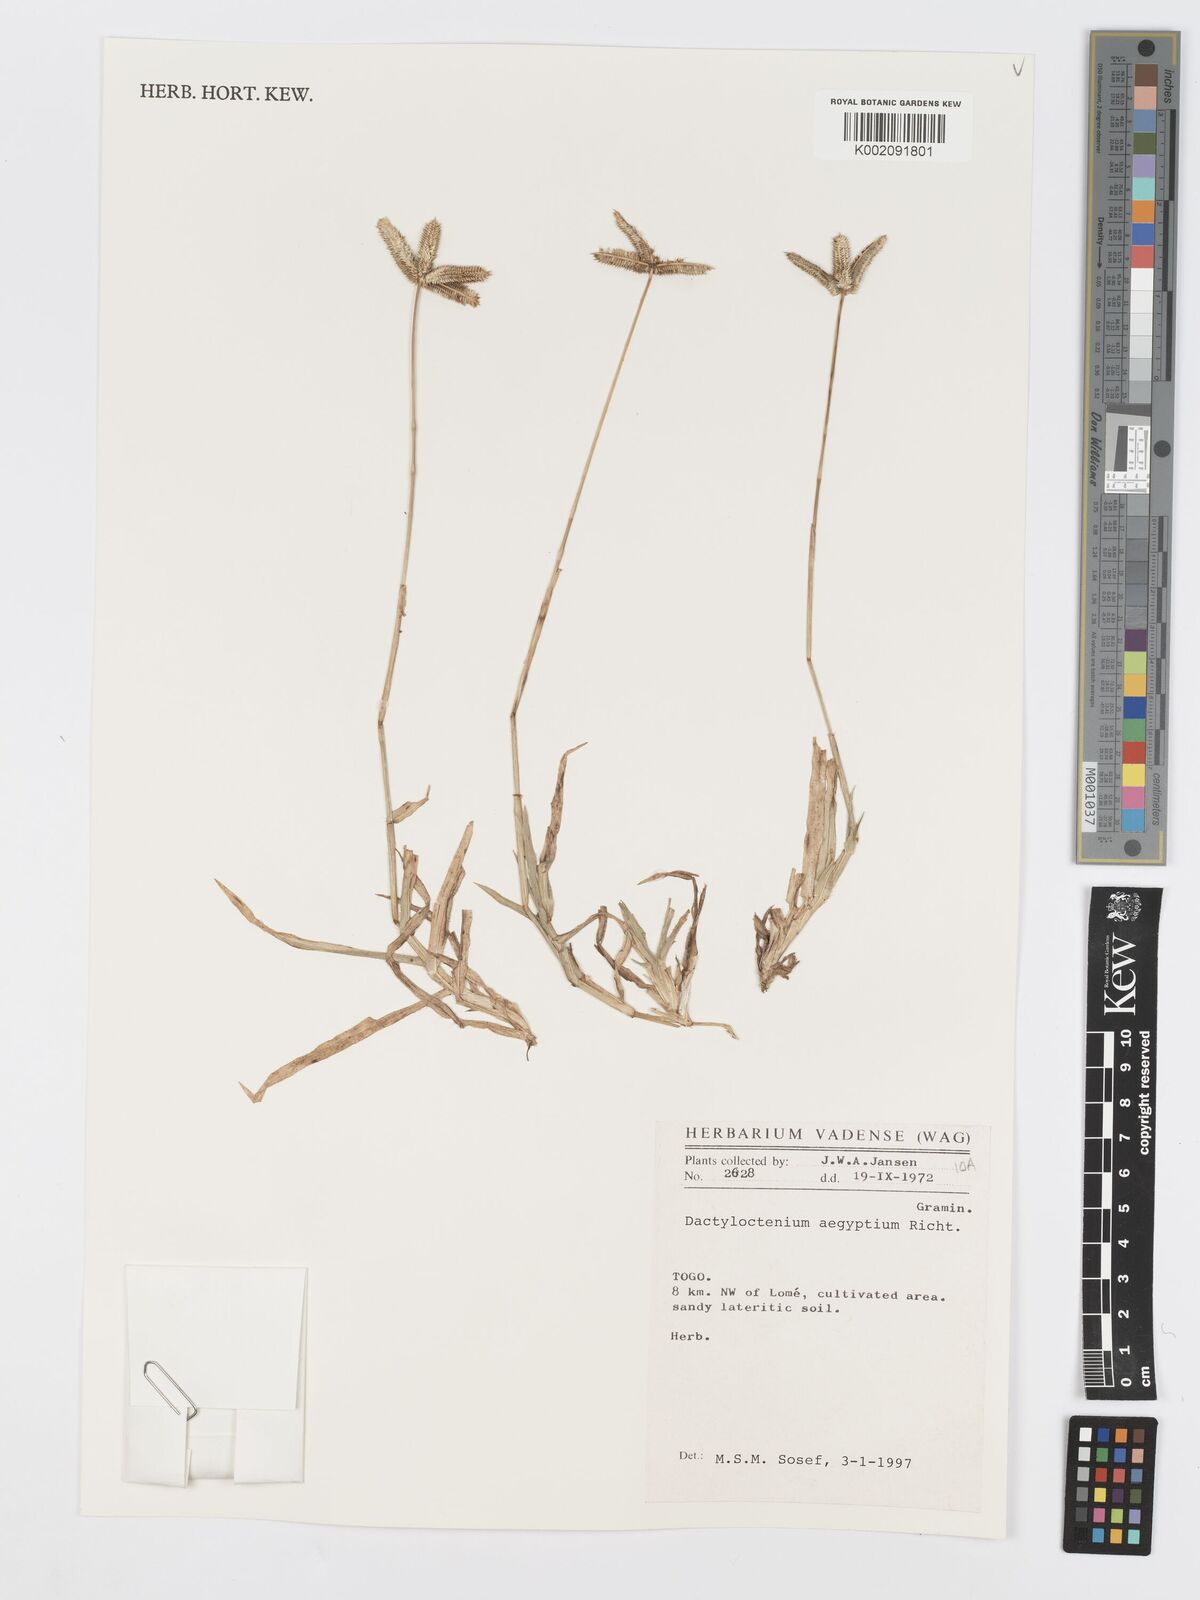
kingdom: Plantae
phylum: Tracheophyta
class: Liliopsida
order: Poales
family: Poaceae
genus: Dactyloctenium
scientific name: Dactyloctenium aegyptium
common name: Egyptian grass
